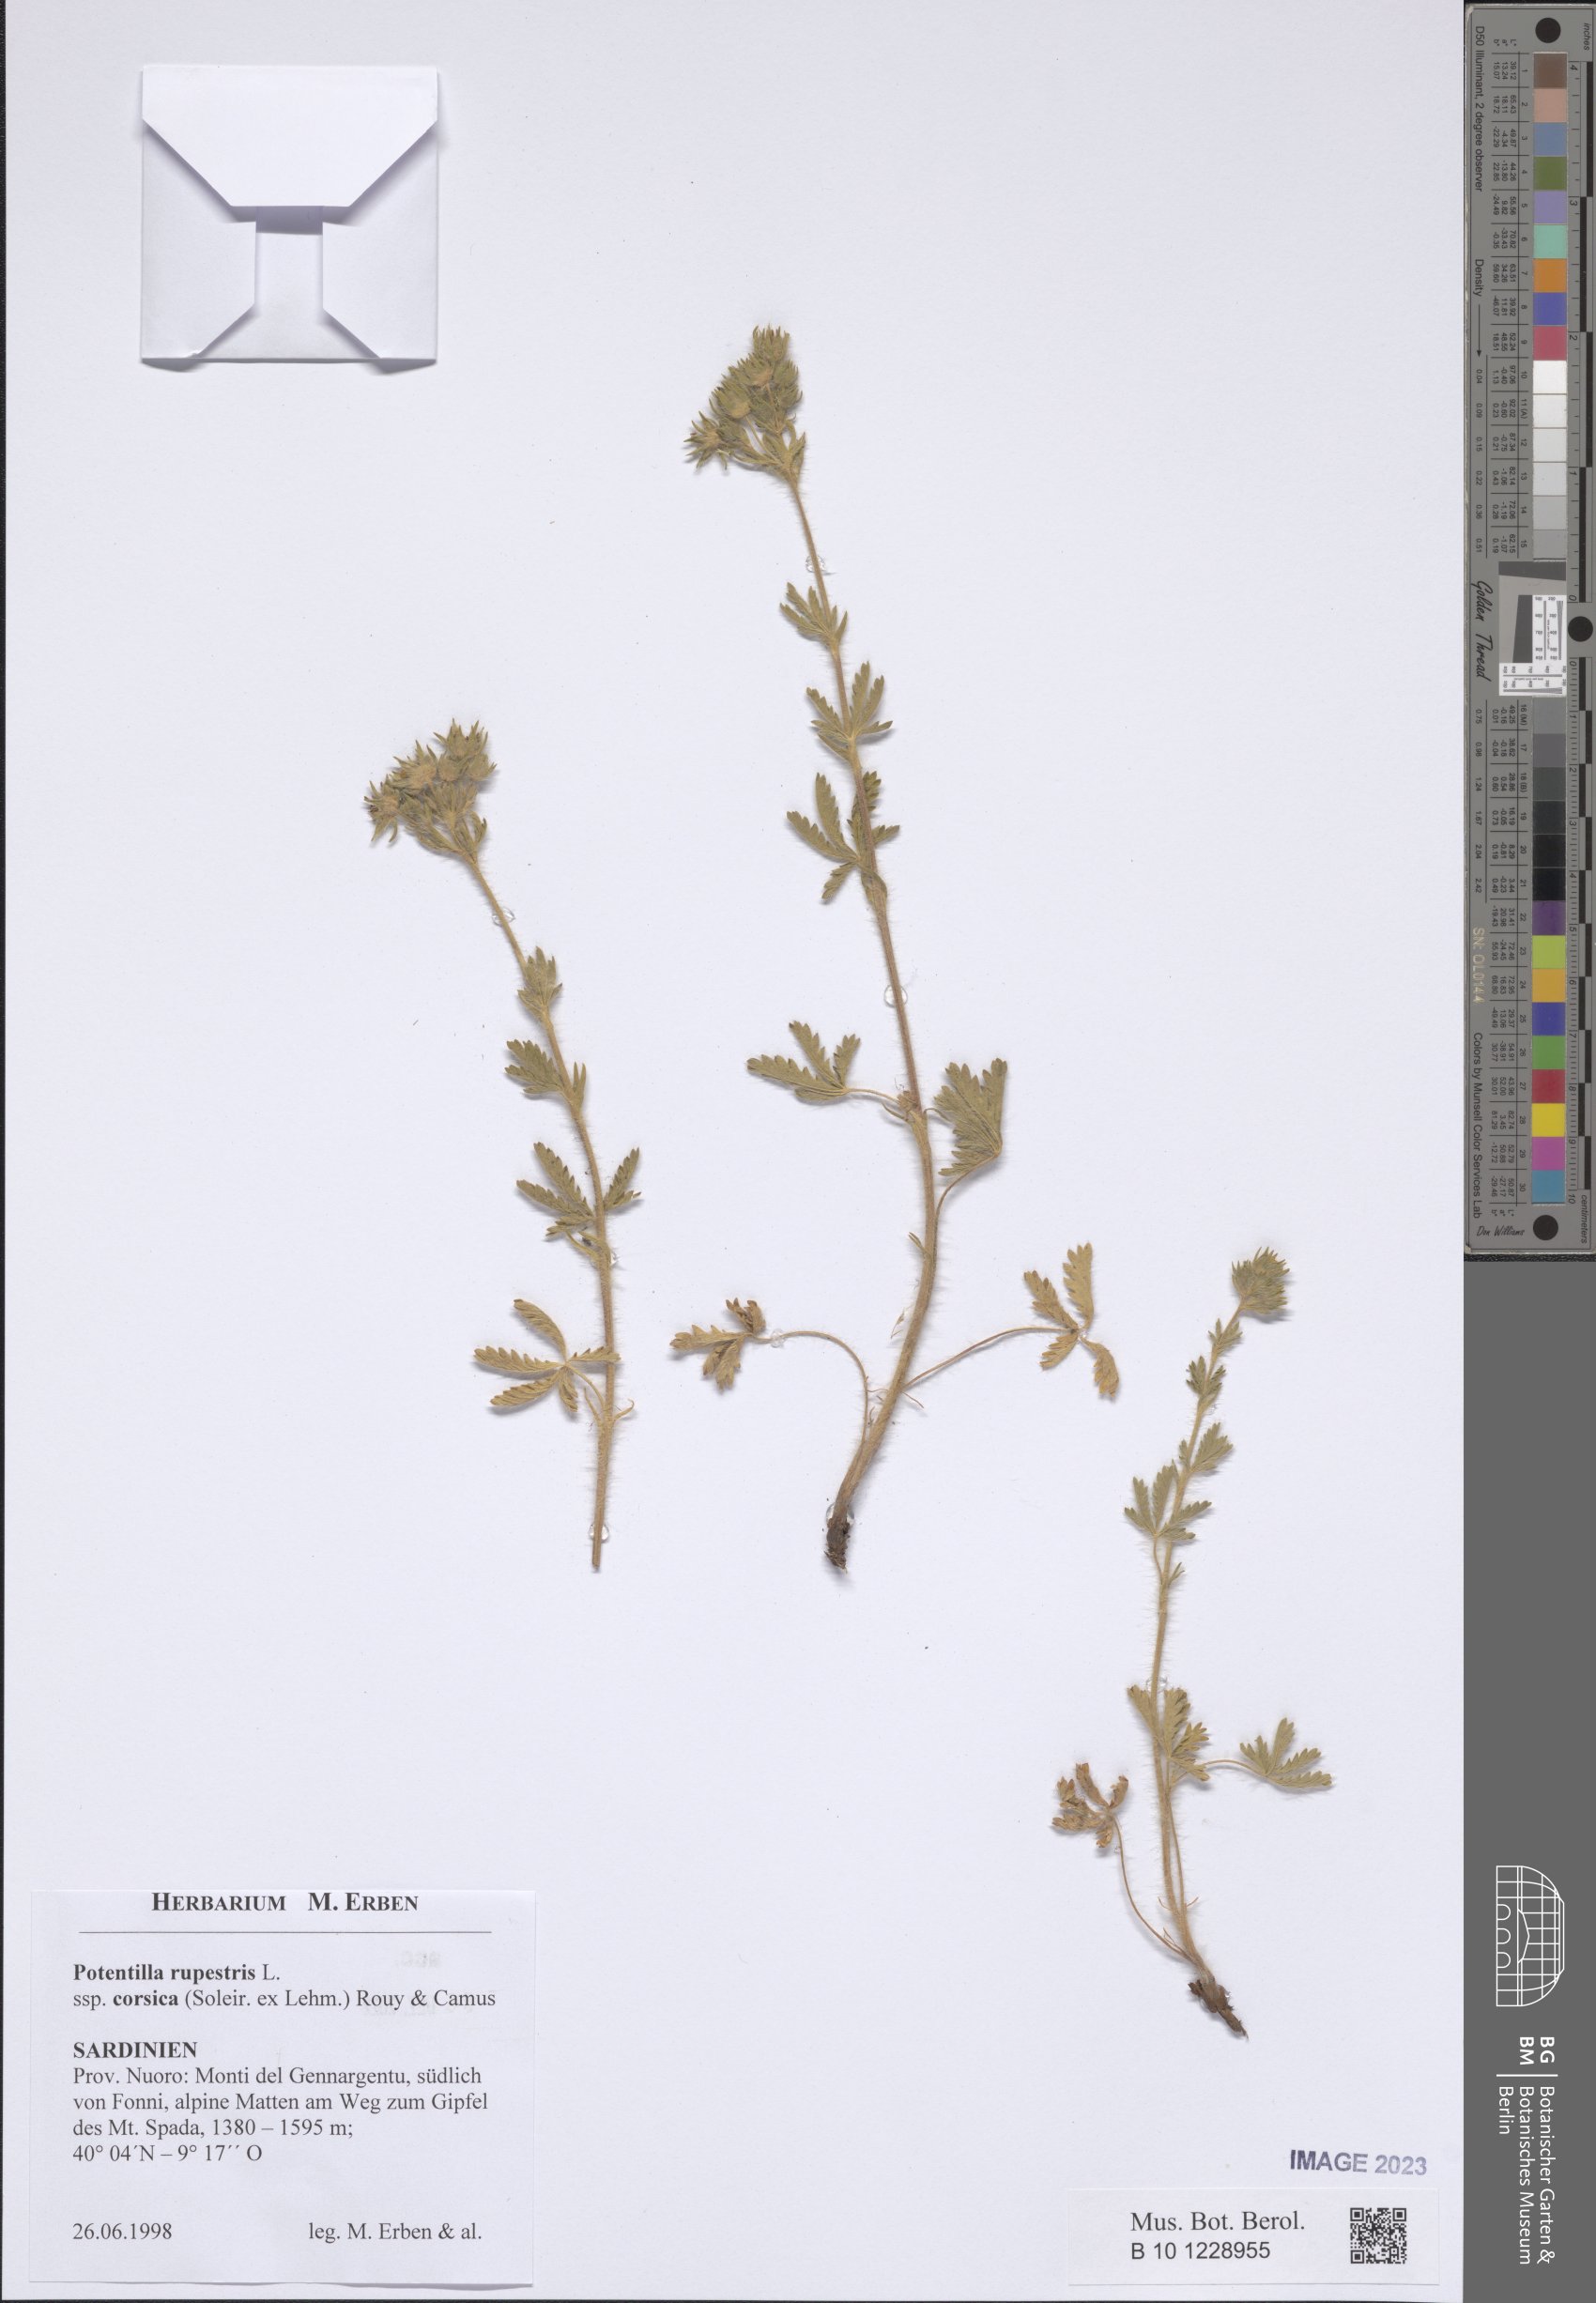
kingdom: Plantae
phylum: Tracheophyta
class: Magnoliopsida
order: Rosales
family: Rosaceae
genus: Drymocallis
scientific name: Drymocallis corsica
